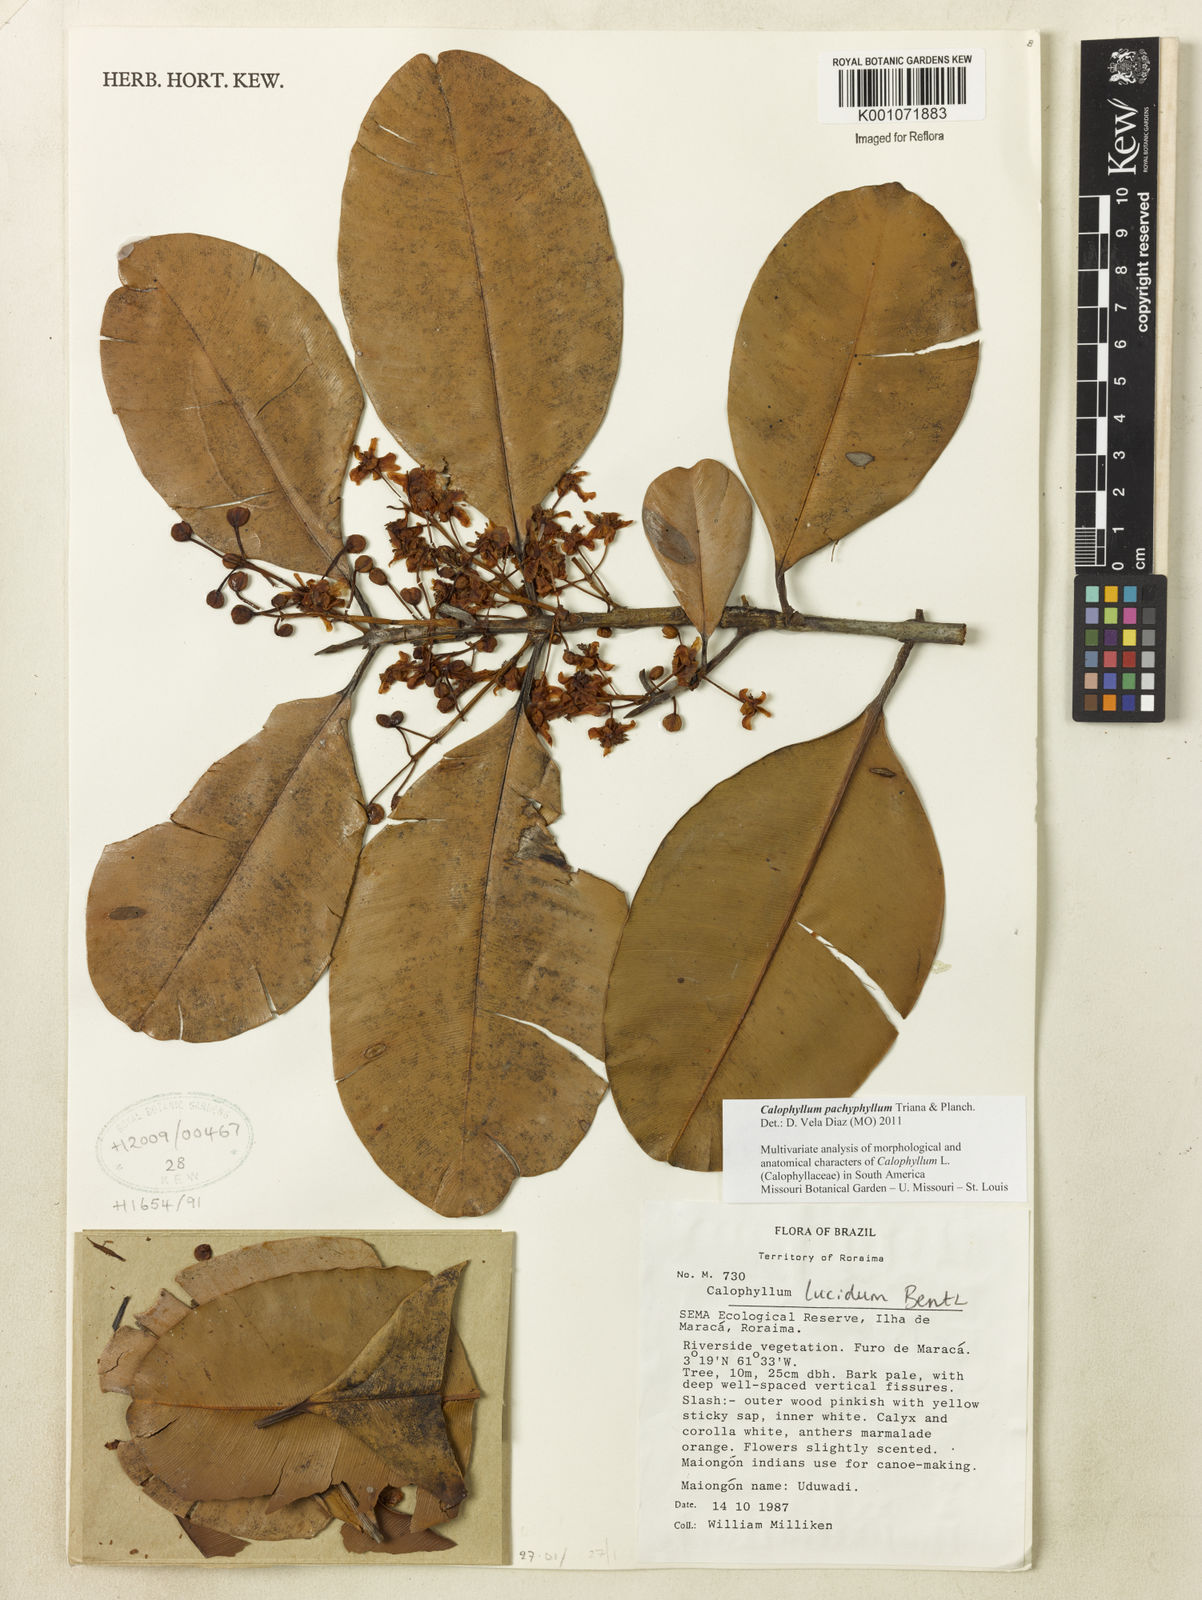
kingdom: Plantae
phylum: Tracheophyta
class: Magnoliopsida
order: Malpighiales
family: Calophyllaceae
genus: Calophyllum
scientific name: Calophyllum pachyphyllum
